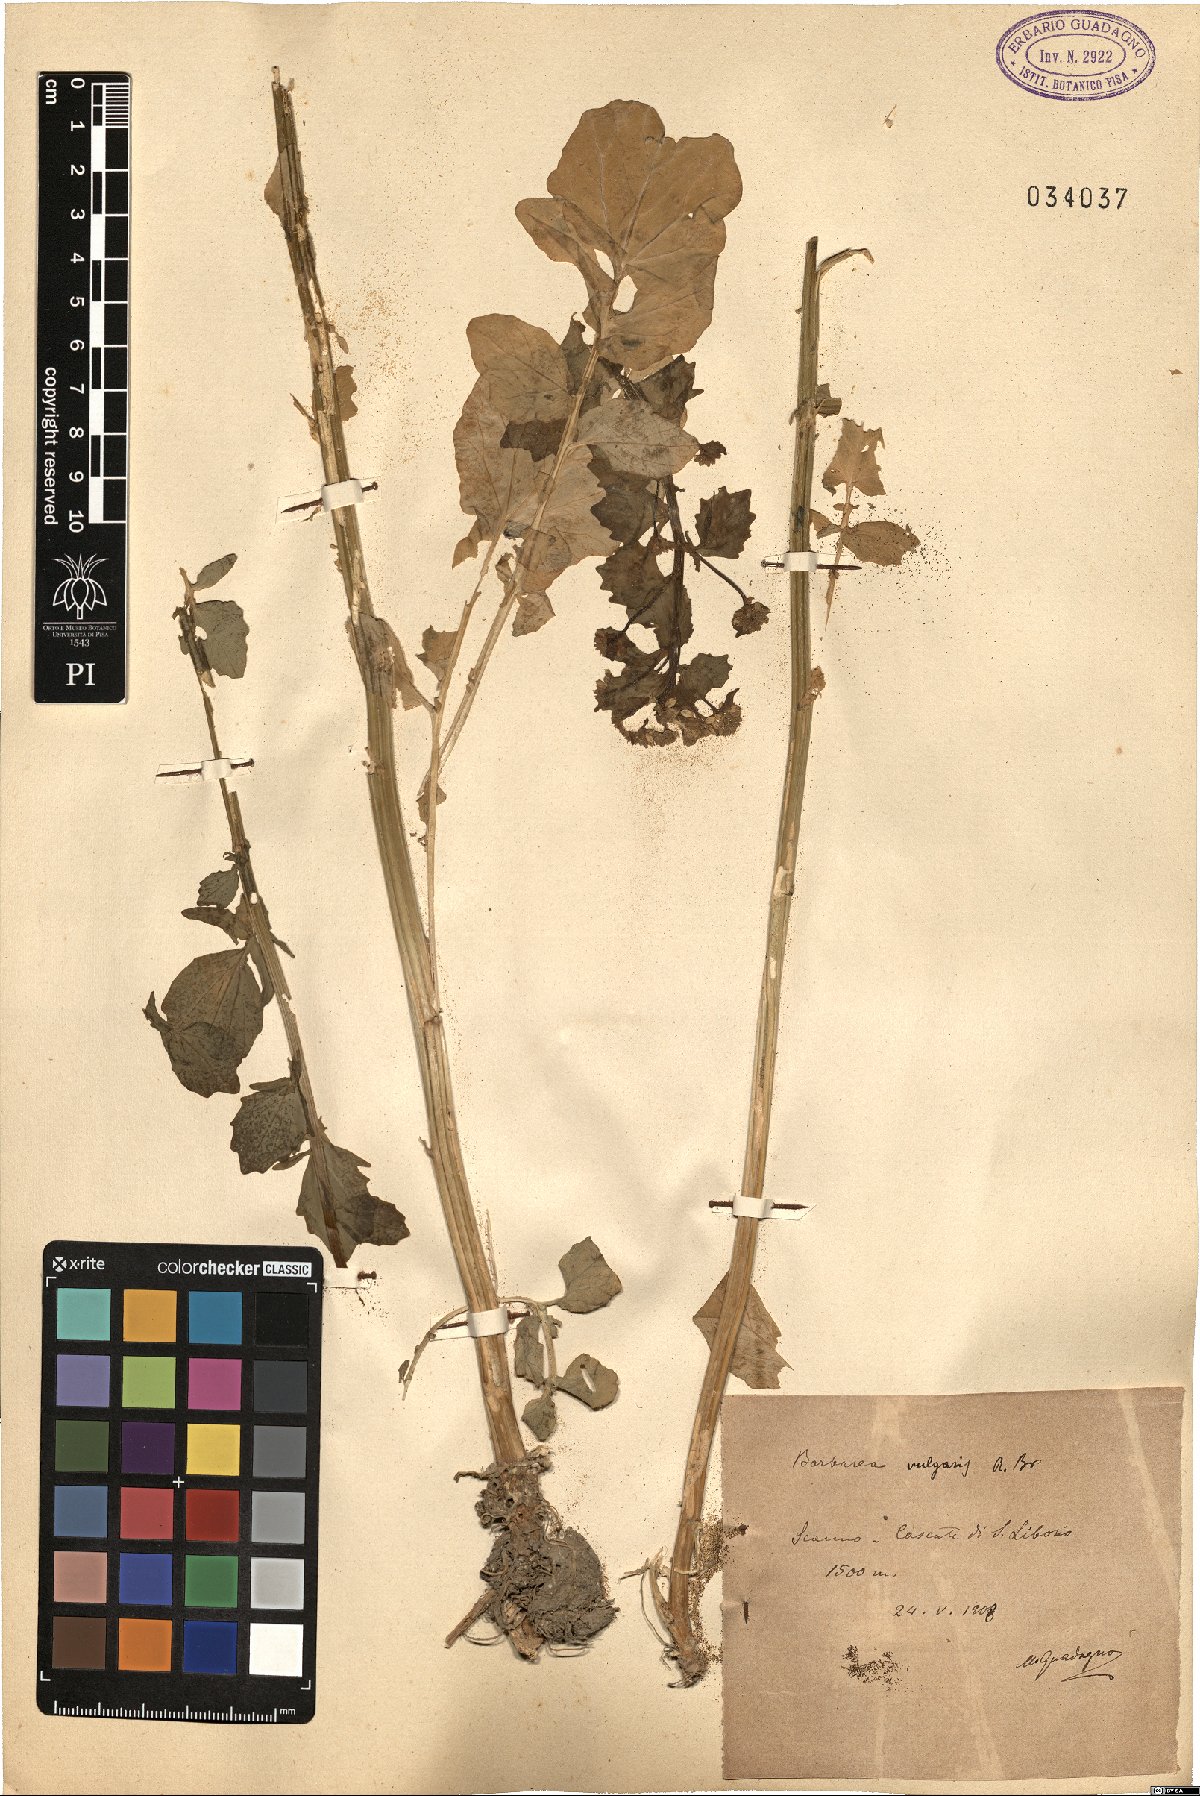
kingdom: Plantae
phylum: Tracheophyta
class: Magnoliopsida
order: Brassicales
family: Brassicaceae
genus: Barbarea
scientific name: Barbarea vulgaris
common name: Cressy-greens
